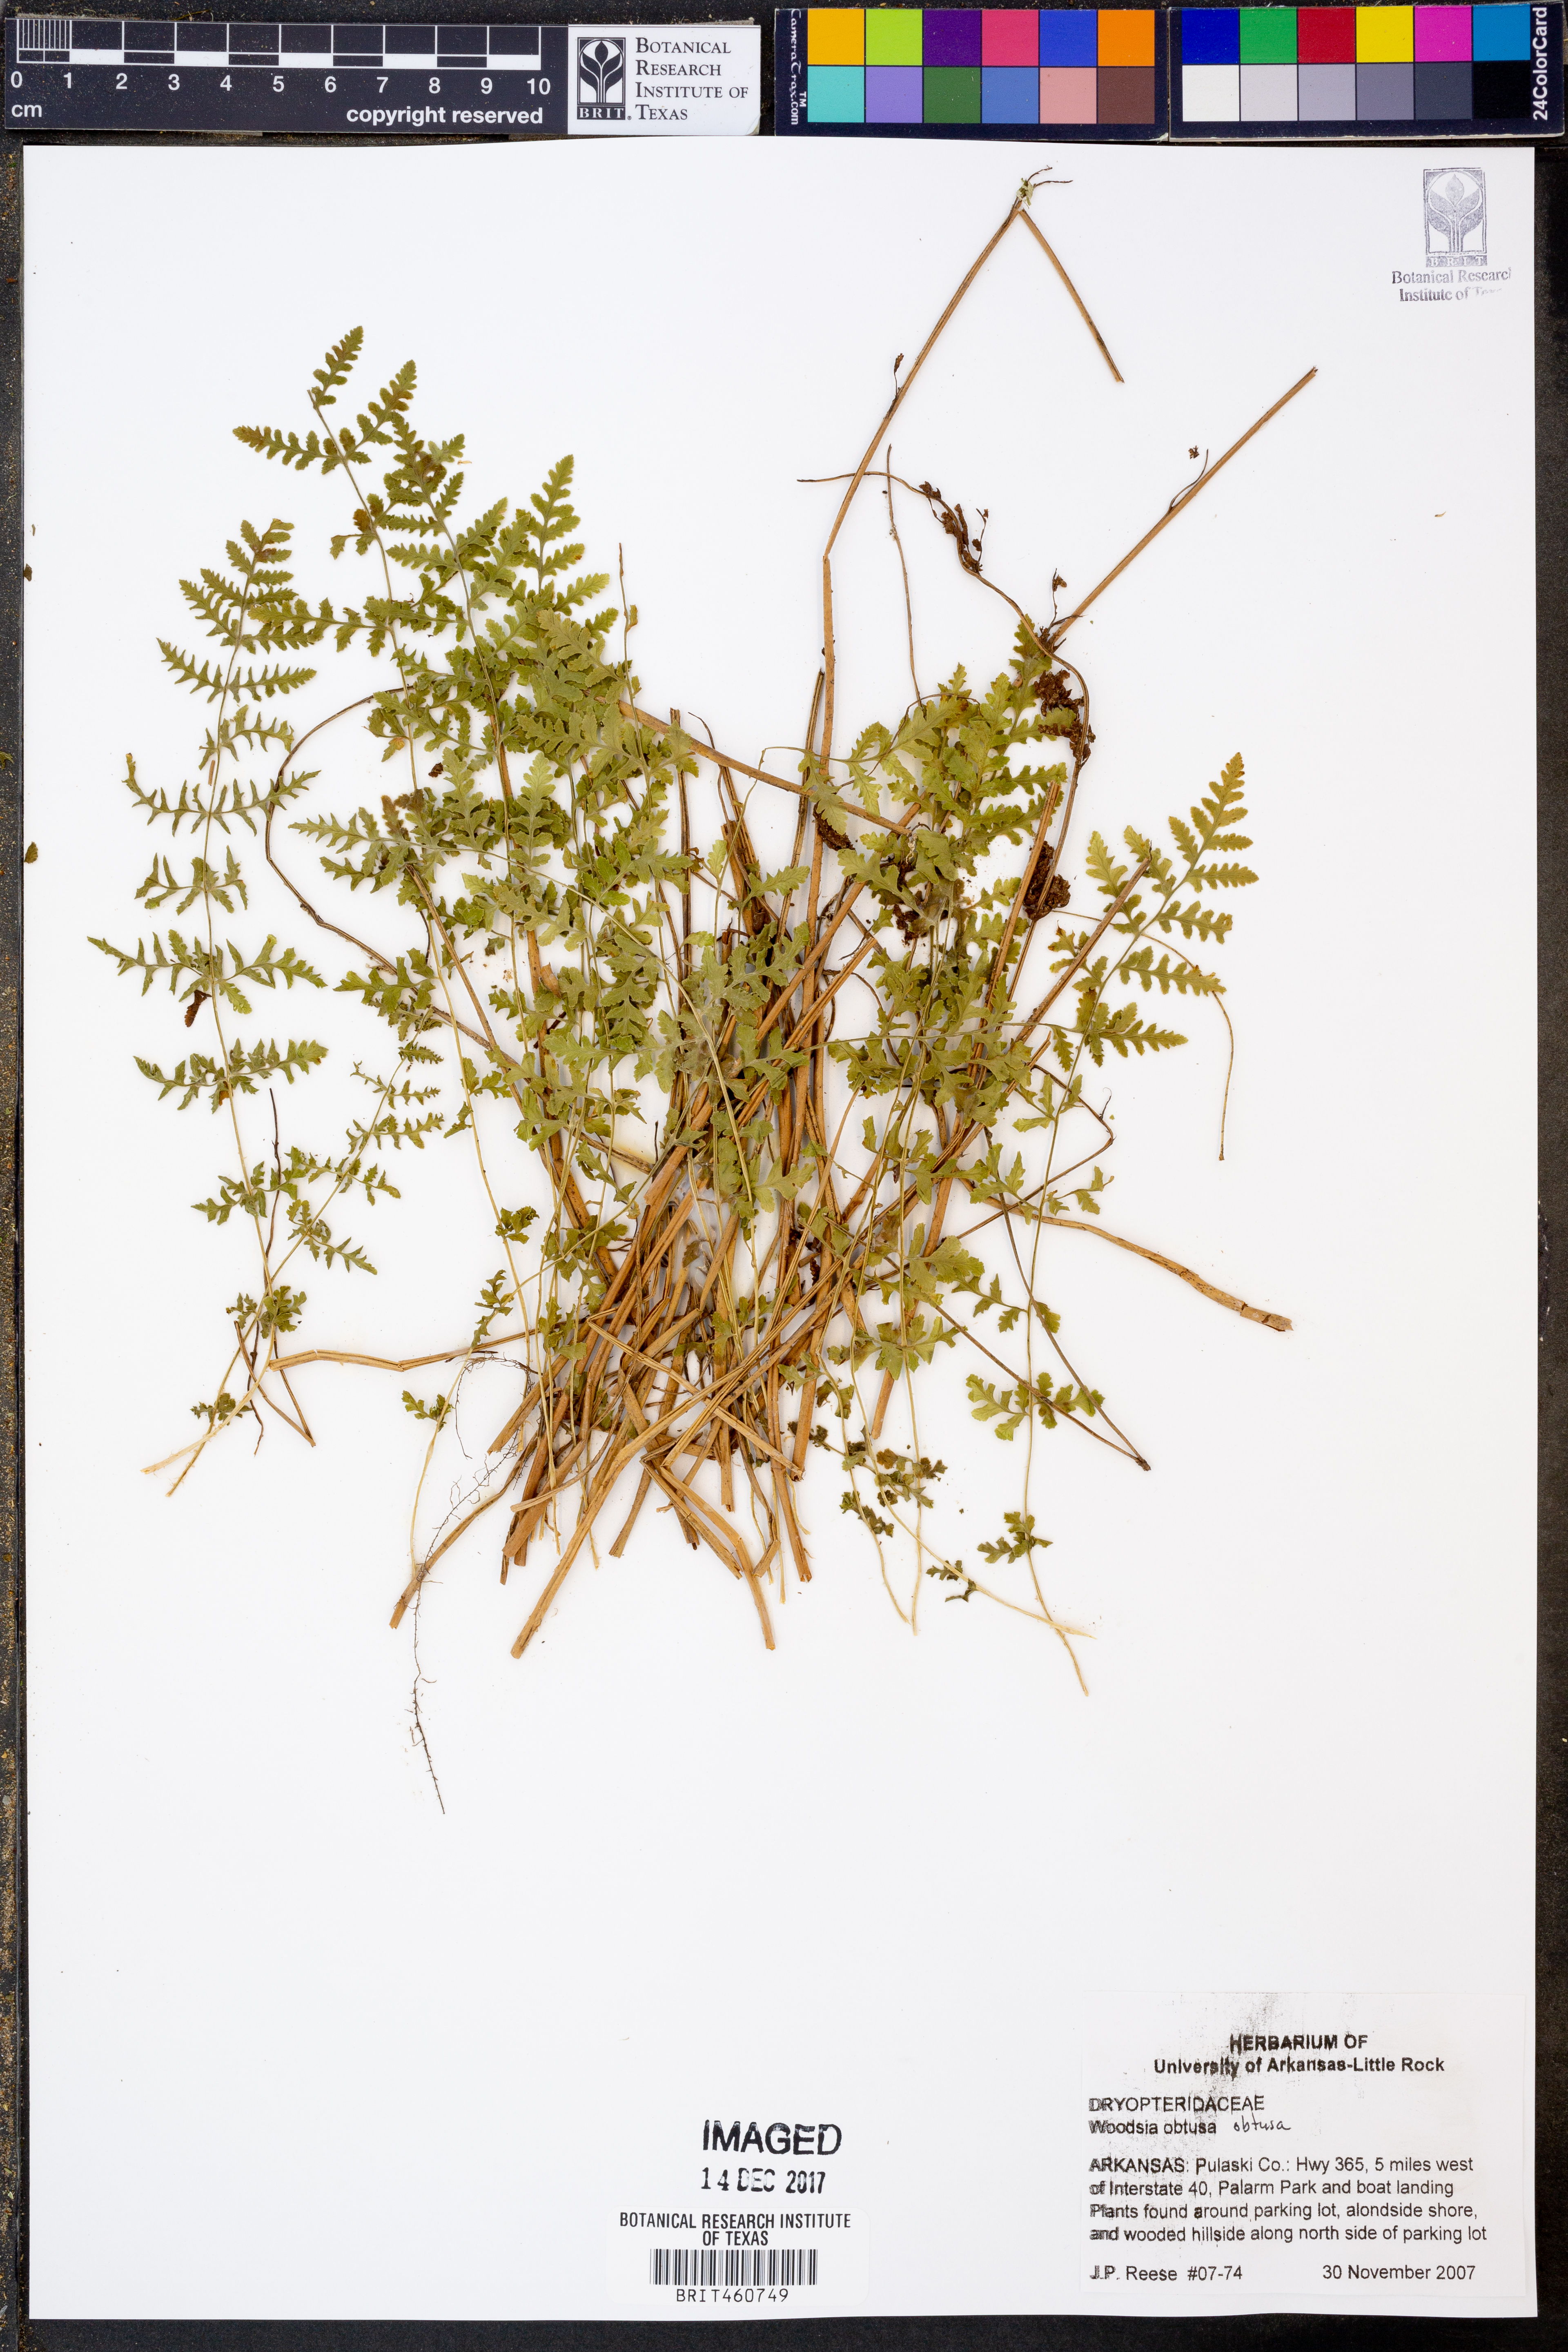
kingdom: Plantae
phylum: Tracheophyta
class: Polypodiopsida
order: Polypodiales
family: Woodsiaceae
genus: Physematium
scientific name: Physematium obtusum
